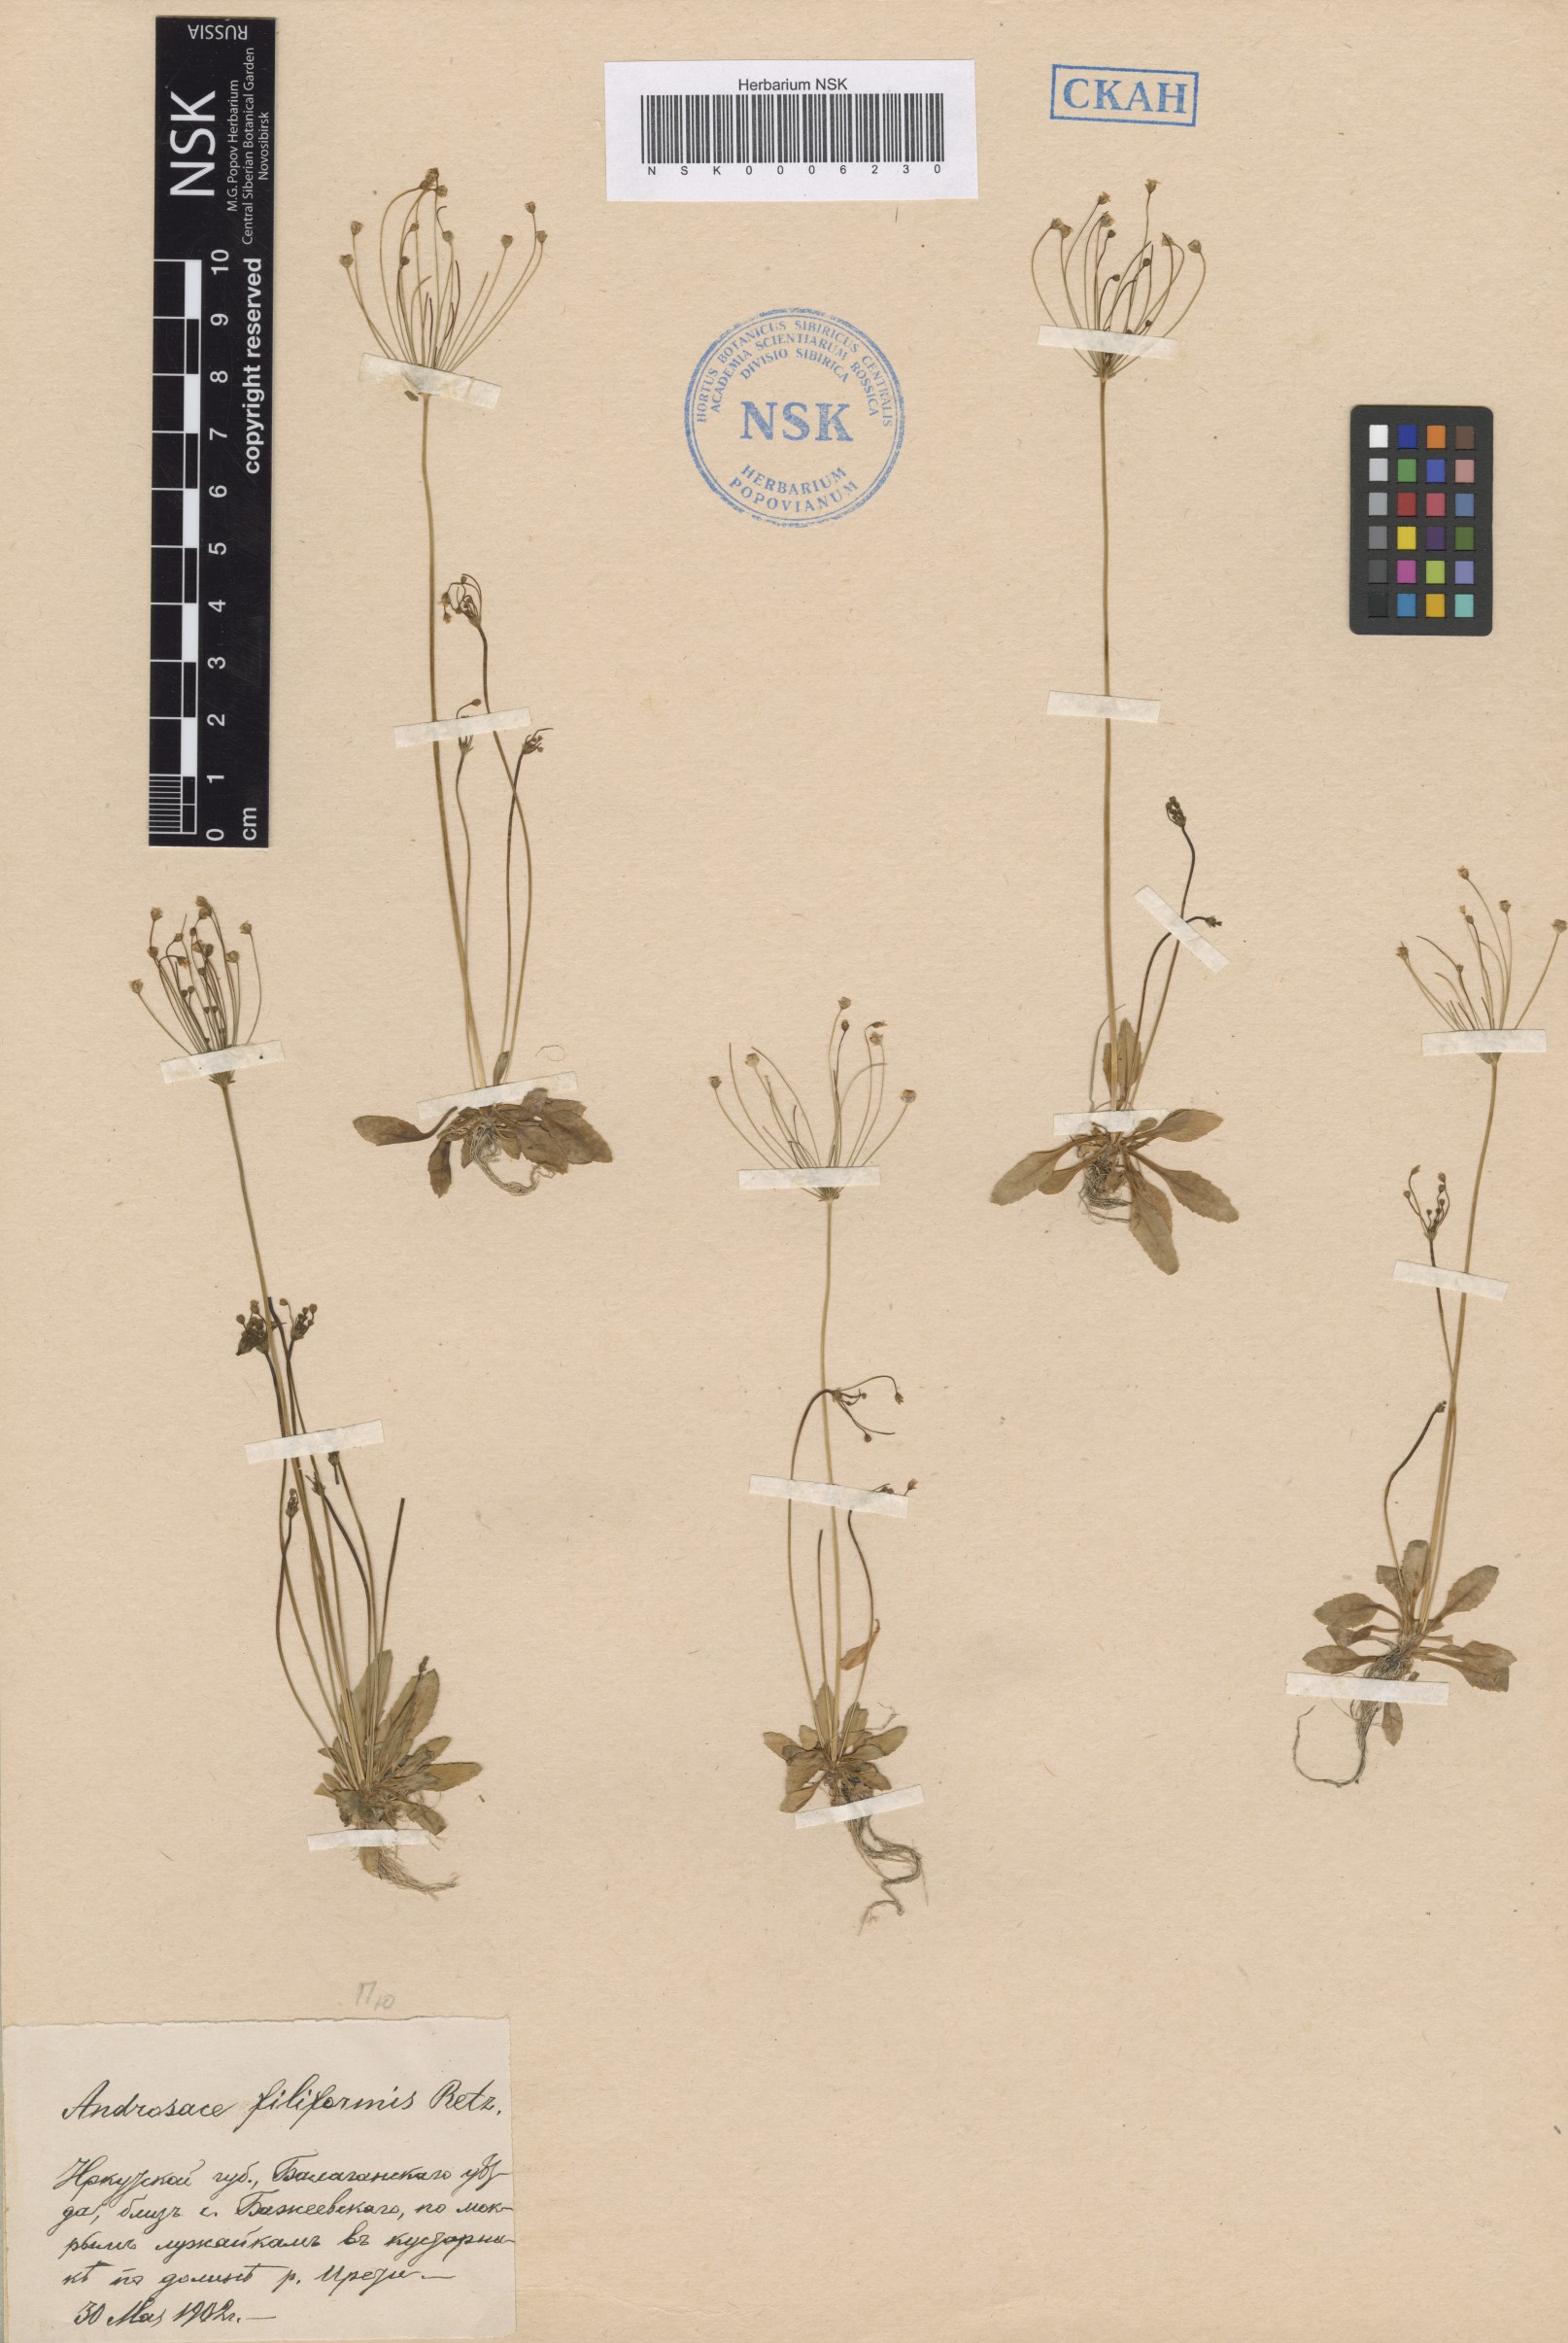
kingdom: Plantae
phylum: Tracheophyta
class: Magnoliopsida
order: Ericales
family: Primulaceae
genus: Androsace
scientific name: Androsace filiformis
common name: Filiform rock jasmine
